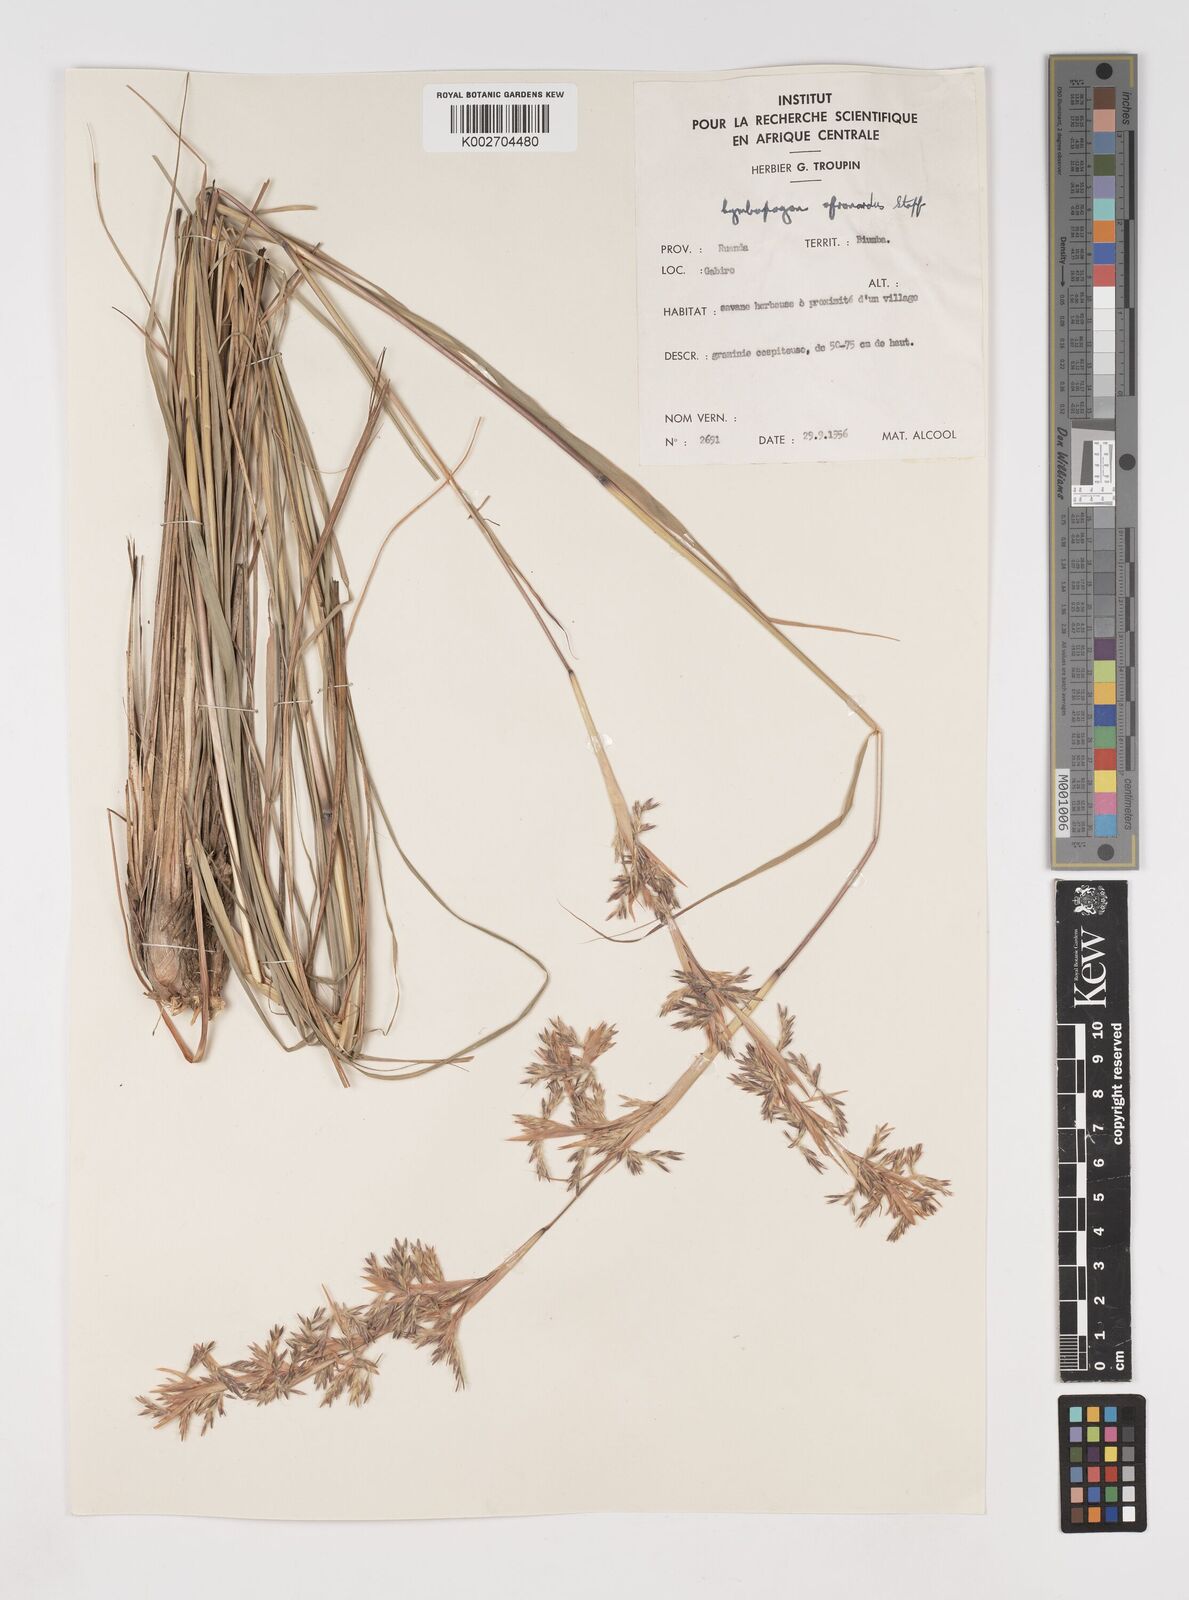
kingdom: Plantae
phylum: Tracheophyta
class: Liliopsida
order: Poales
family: Poaceae
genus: Cymbopogon
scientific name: Cymbopogon nardus
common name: Giant turpentine grass
